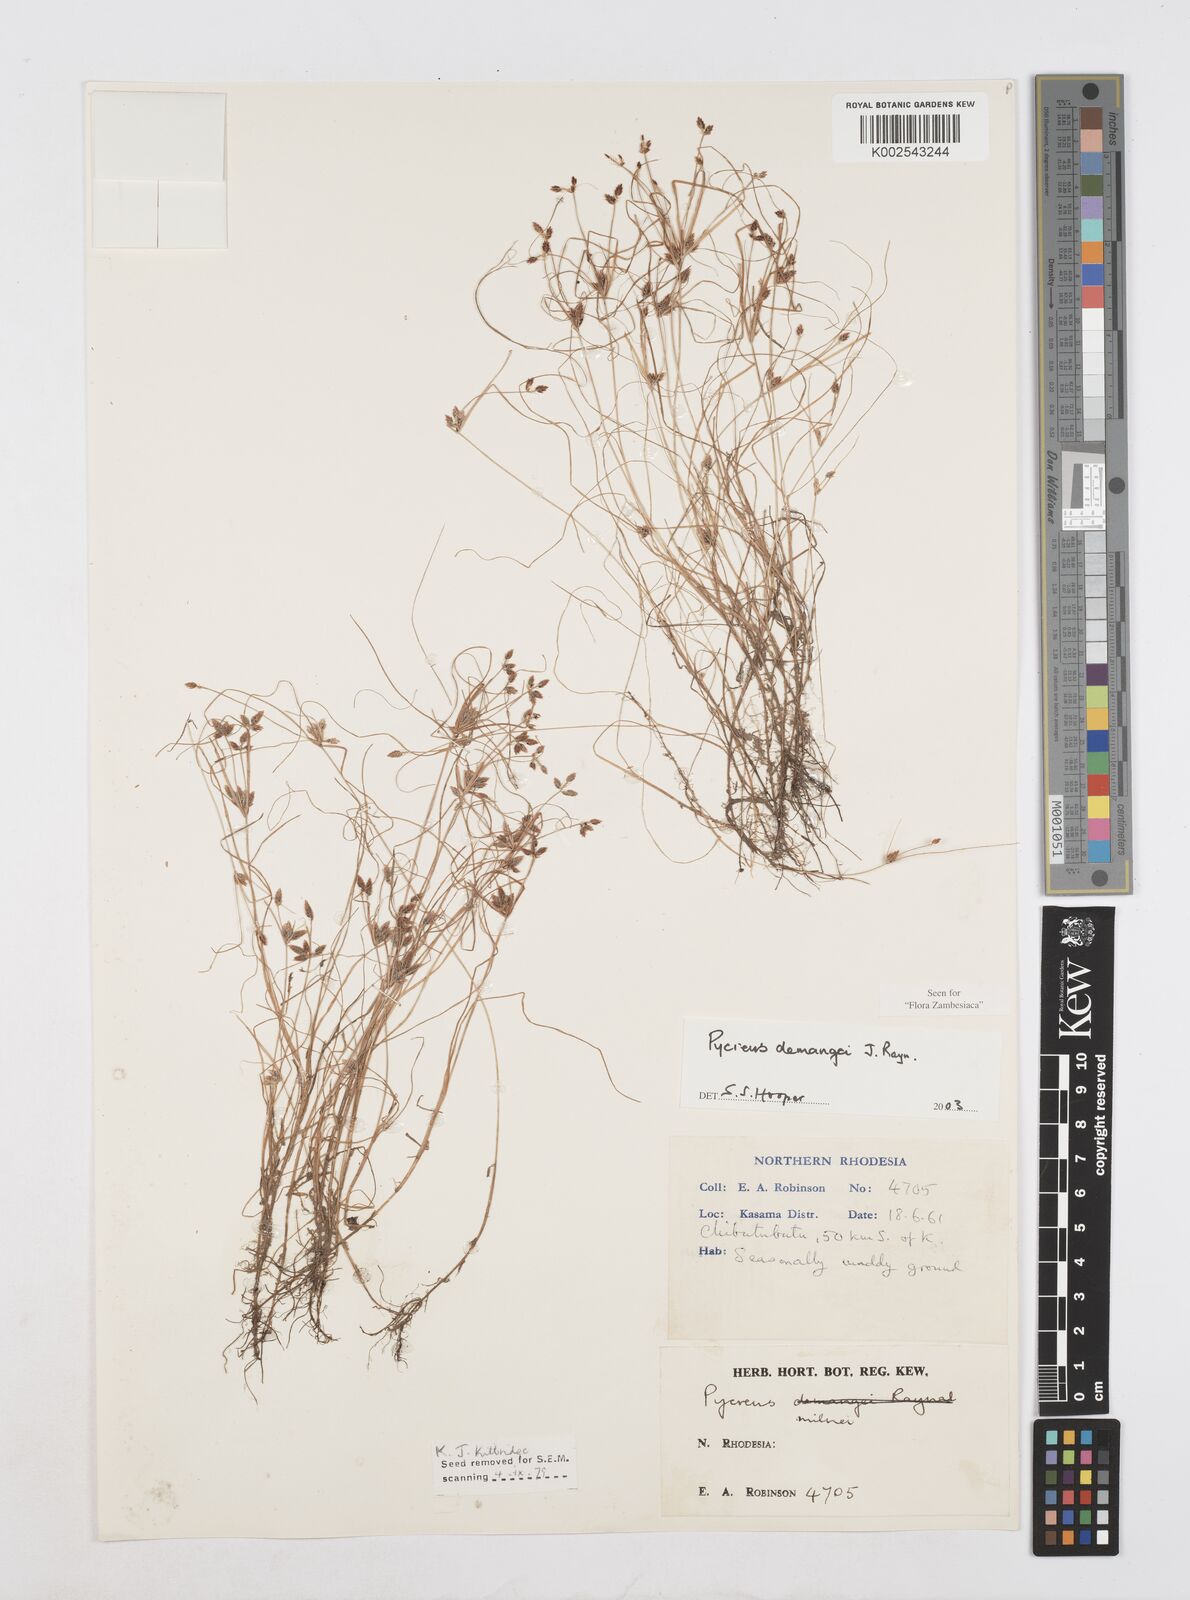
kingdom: Plantae
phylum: Tracheophyta
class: Liliopsida
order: Poales
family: Cyperaceae
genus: Cyperus
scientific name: Cyperus demangei
